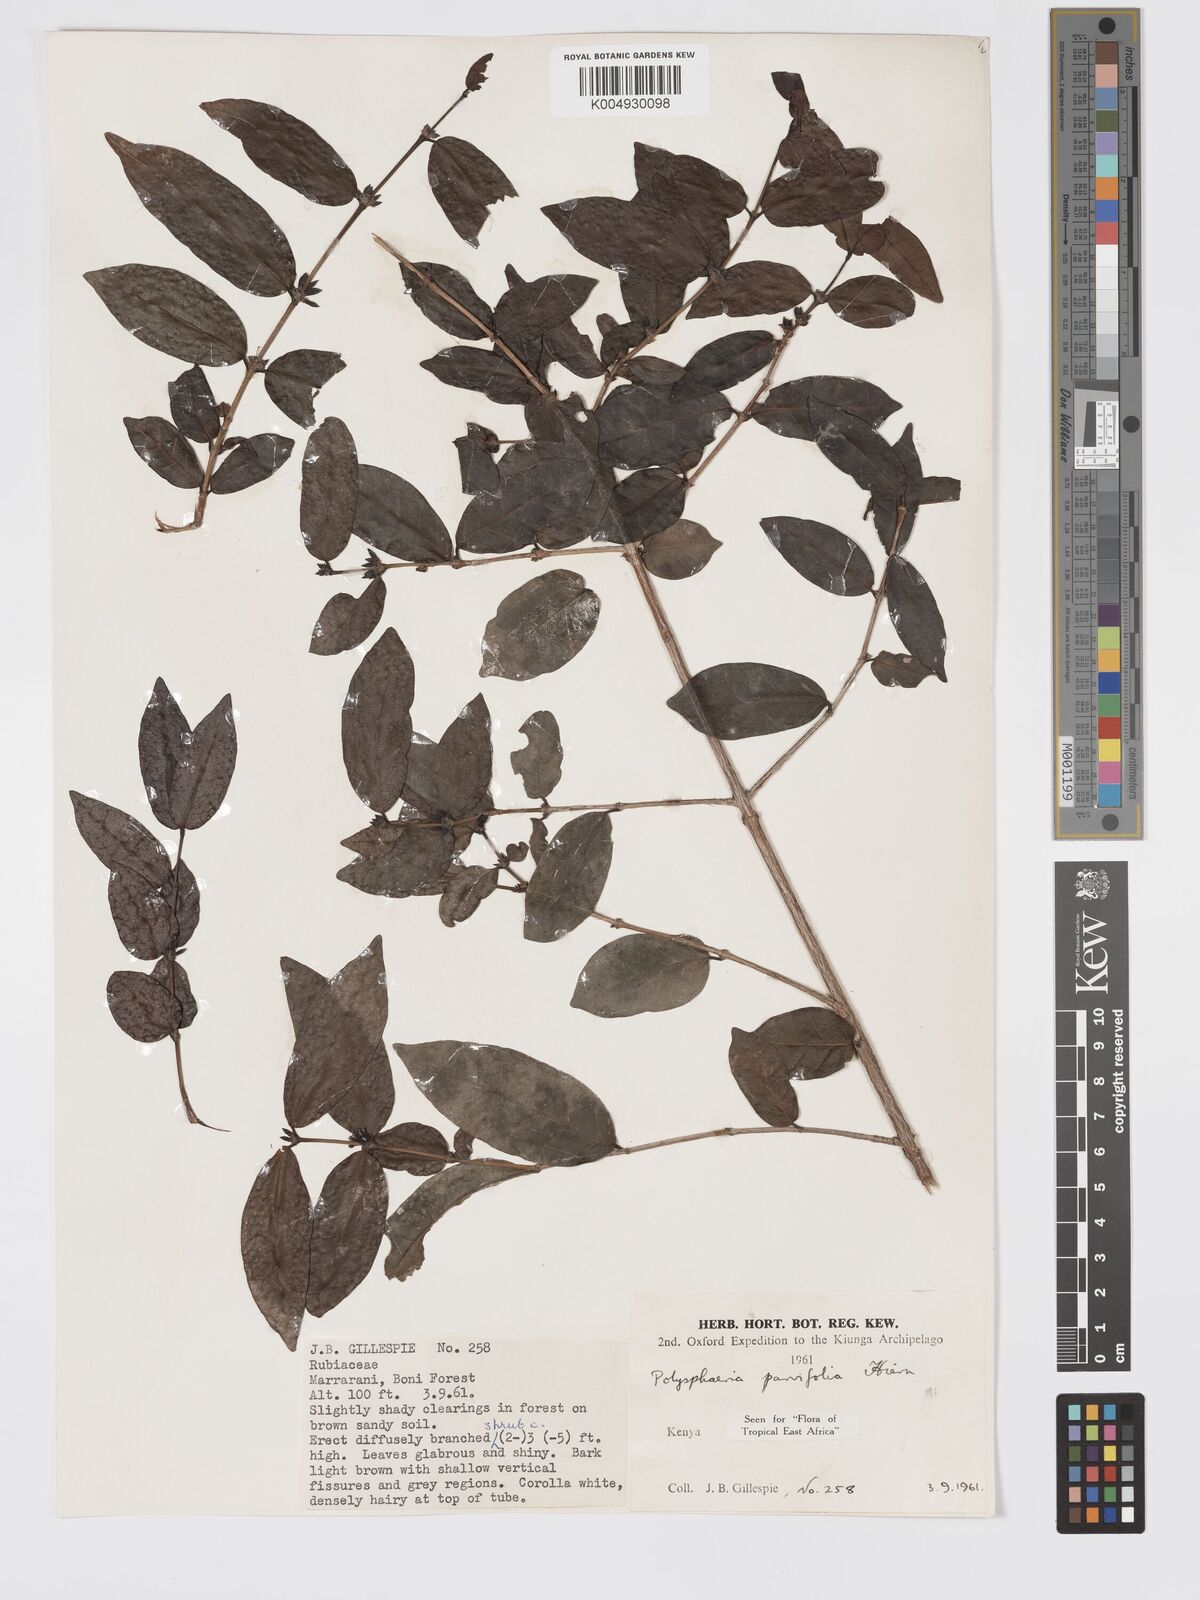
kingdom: Plantae
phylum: Tracheophyta
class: Magnoliopsida
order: Gentianales
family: Rubiaceae
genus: Eumachia
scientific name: Eumachia parviflora
